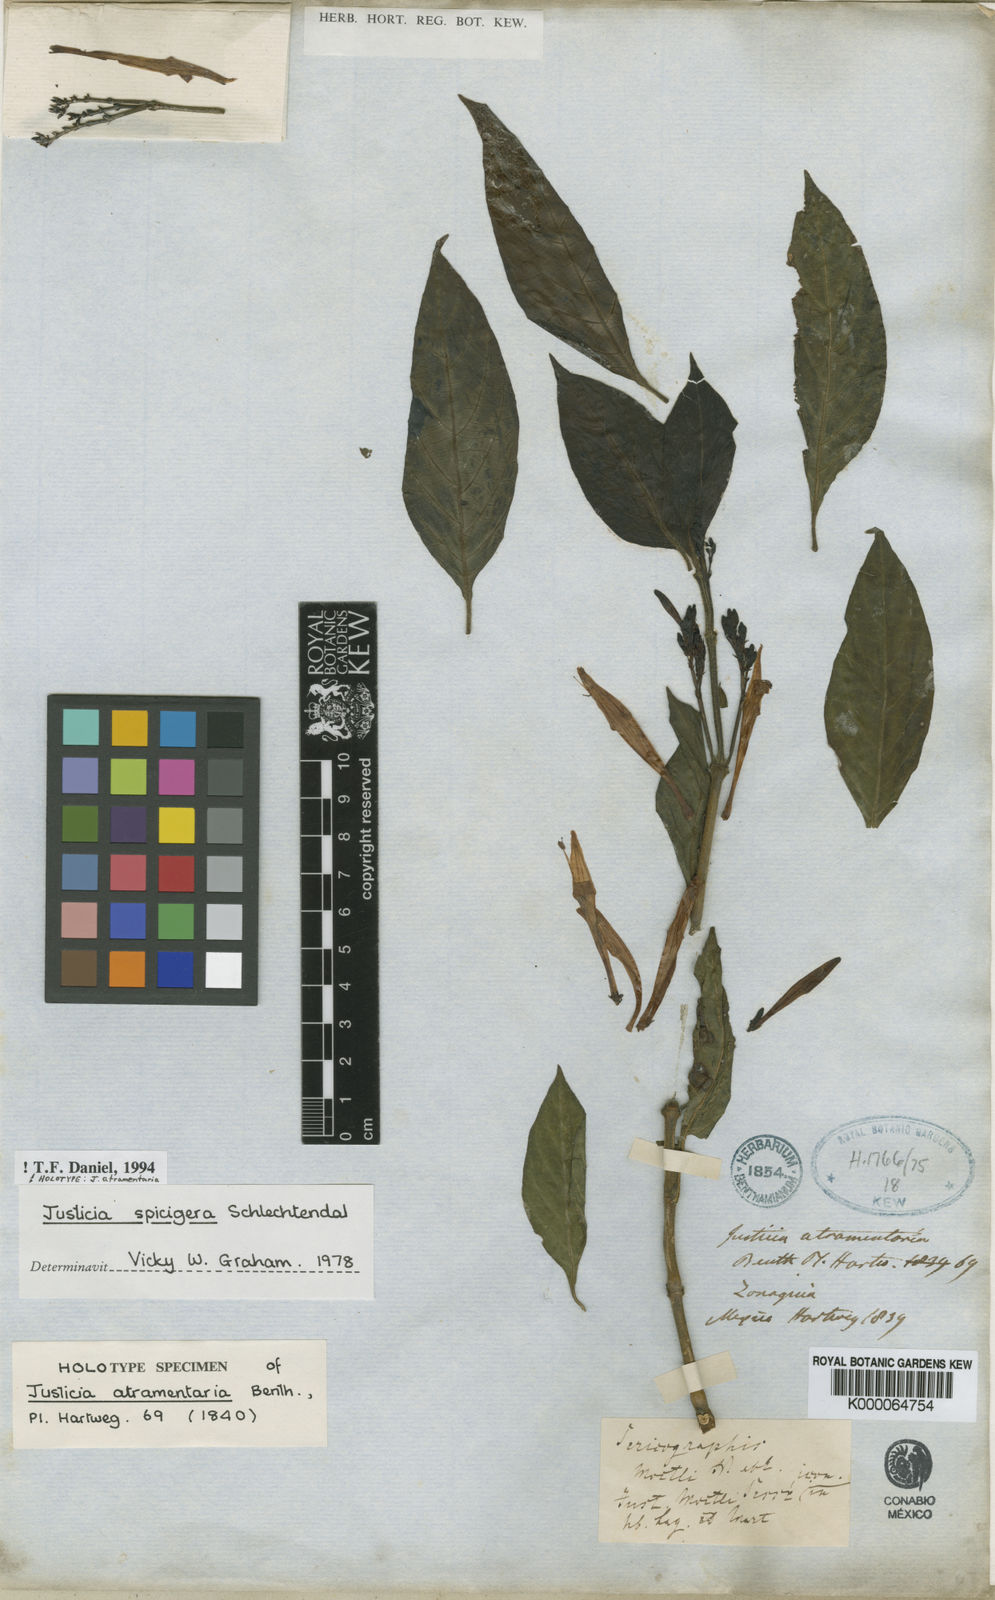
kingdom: Plantae
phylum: Tracheophyta
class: Magnoliopsida
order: Lamiales
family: Acanthaceae
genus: Justicia
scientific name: Justicia spicigera
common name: Mohintli
